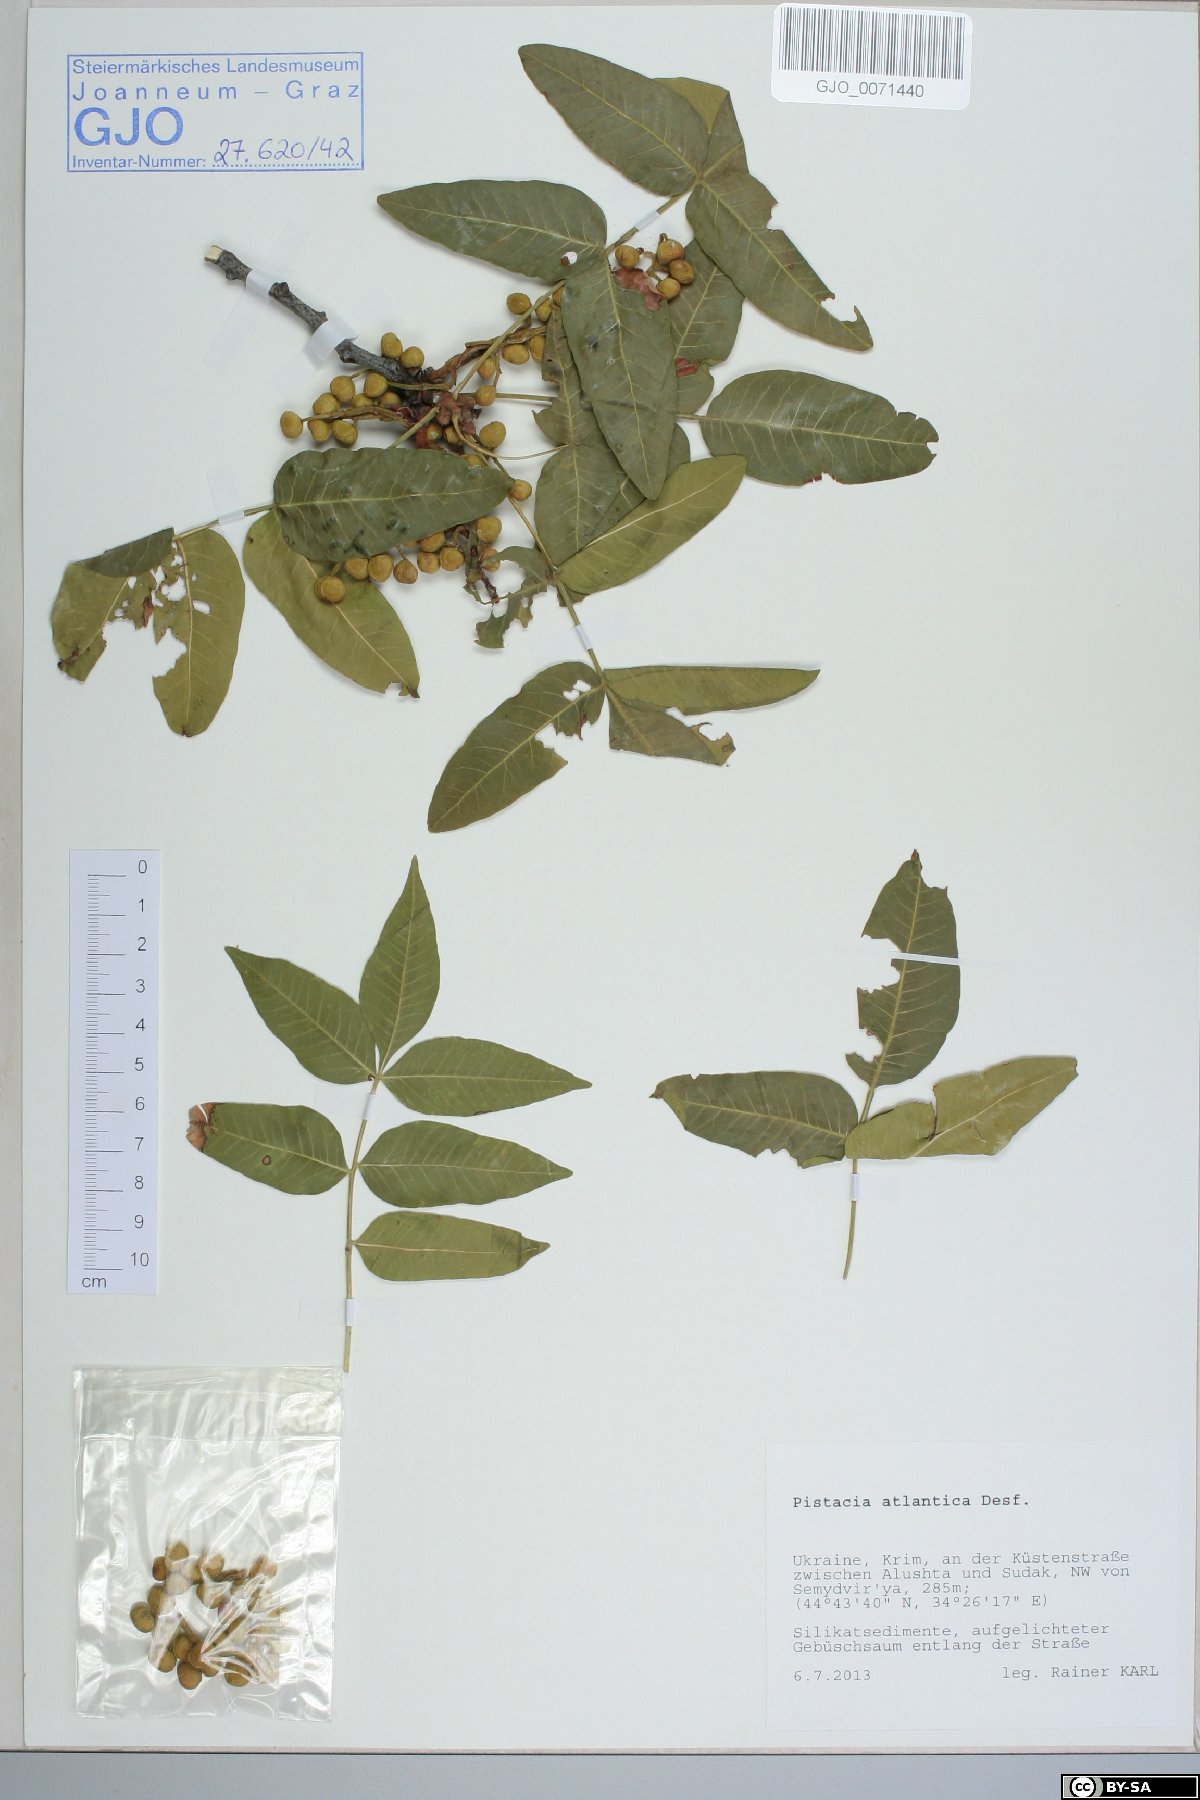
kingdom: Plantae
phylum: Tracheophyta
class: Magnoliopsida
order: Sapindales
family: Anacardiaceae
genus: Pistacia
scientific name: Pistacia atlantica
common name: Mt. atlas mastic tree
